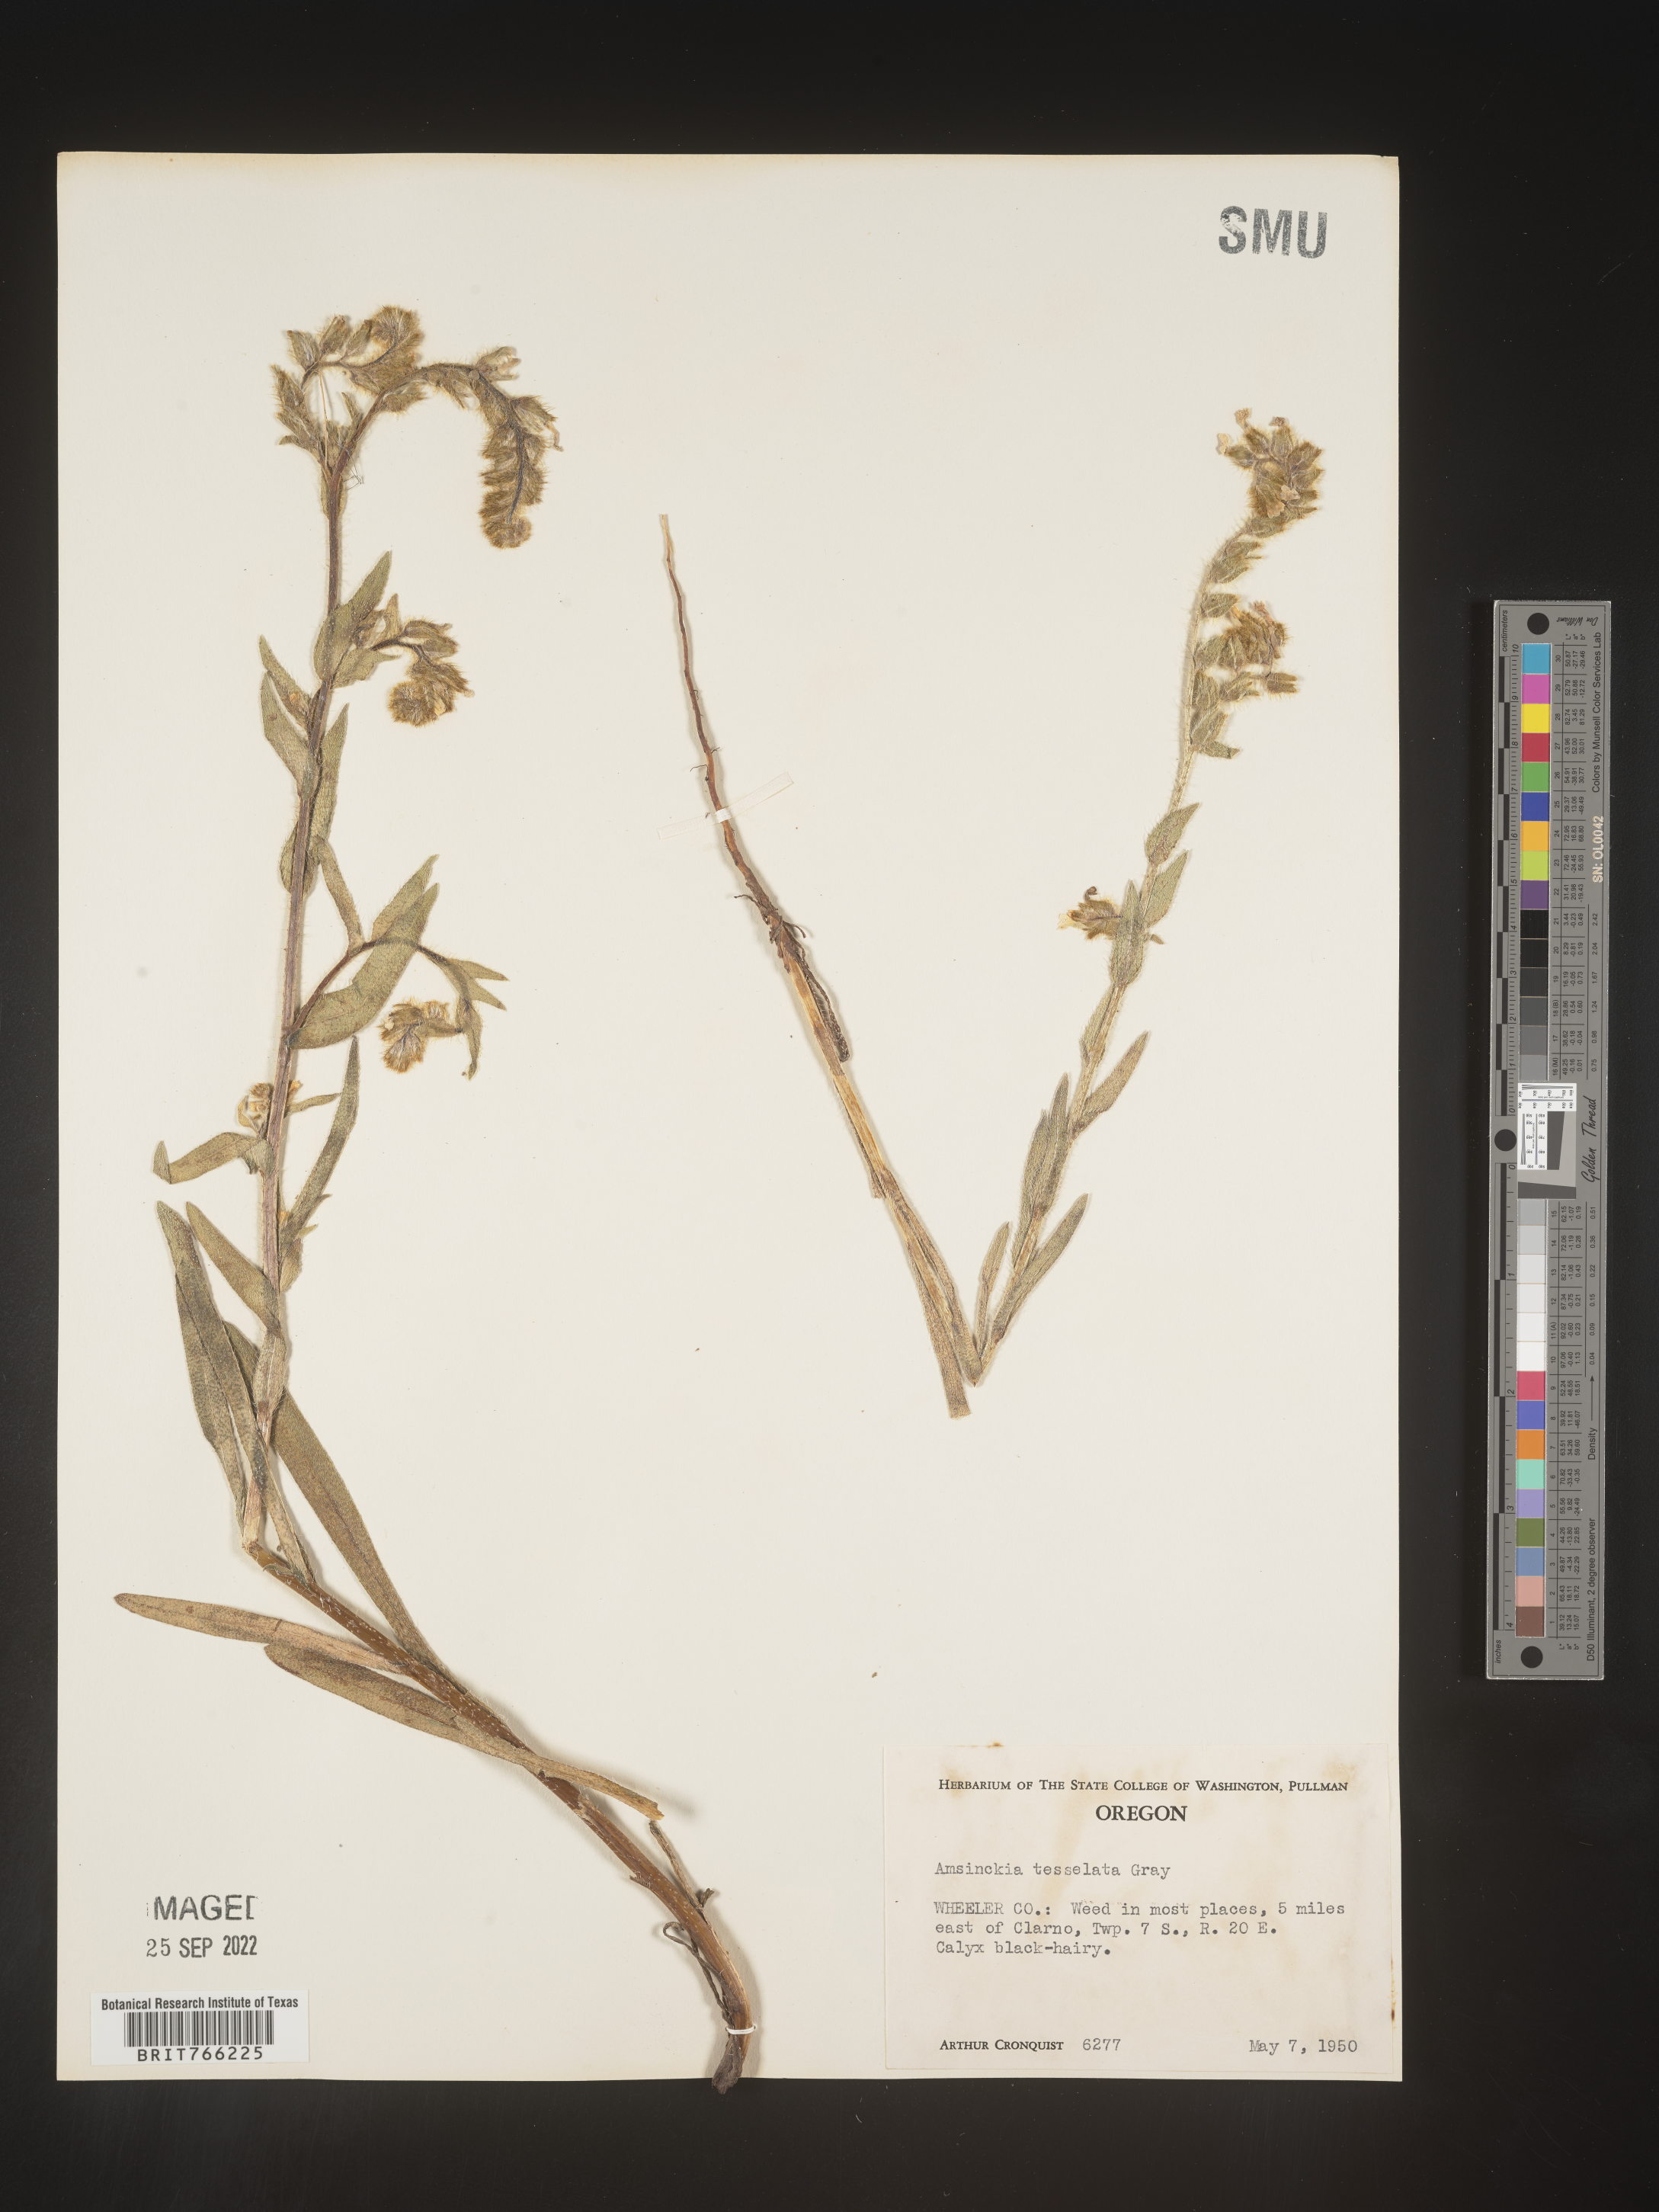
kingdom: Plantae
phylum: Tracheophyta
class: Magnoliopsida
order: Boraginales
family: Boraginaceae
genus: Amsinckia
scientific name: Amsinckia tessellata
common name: Tessellate fiddleneck
